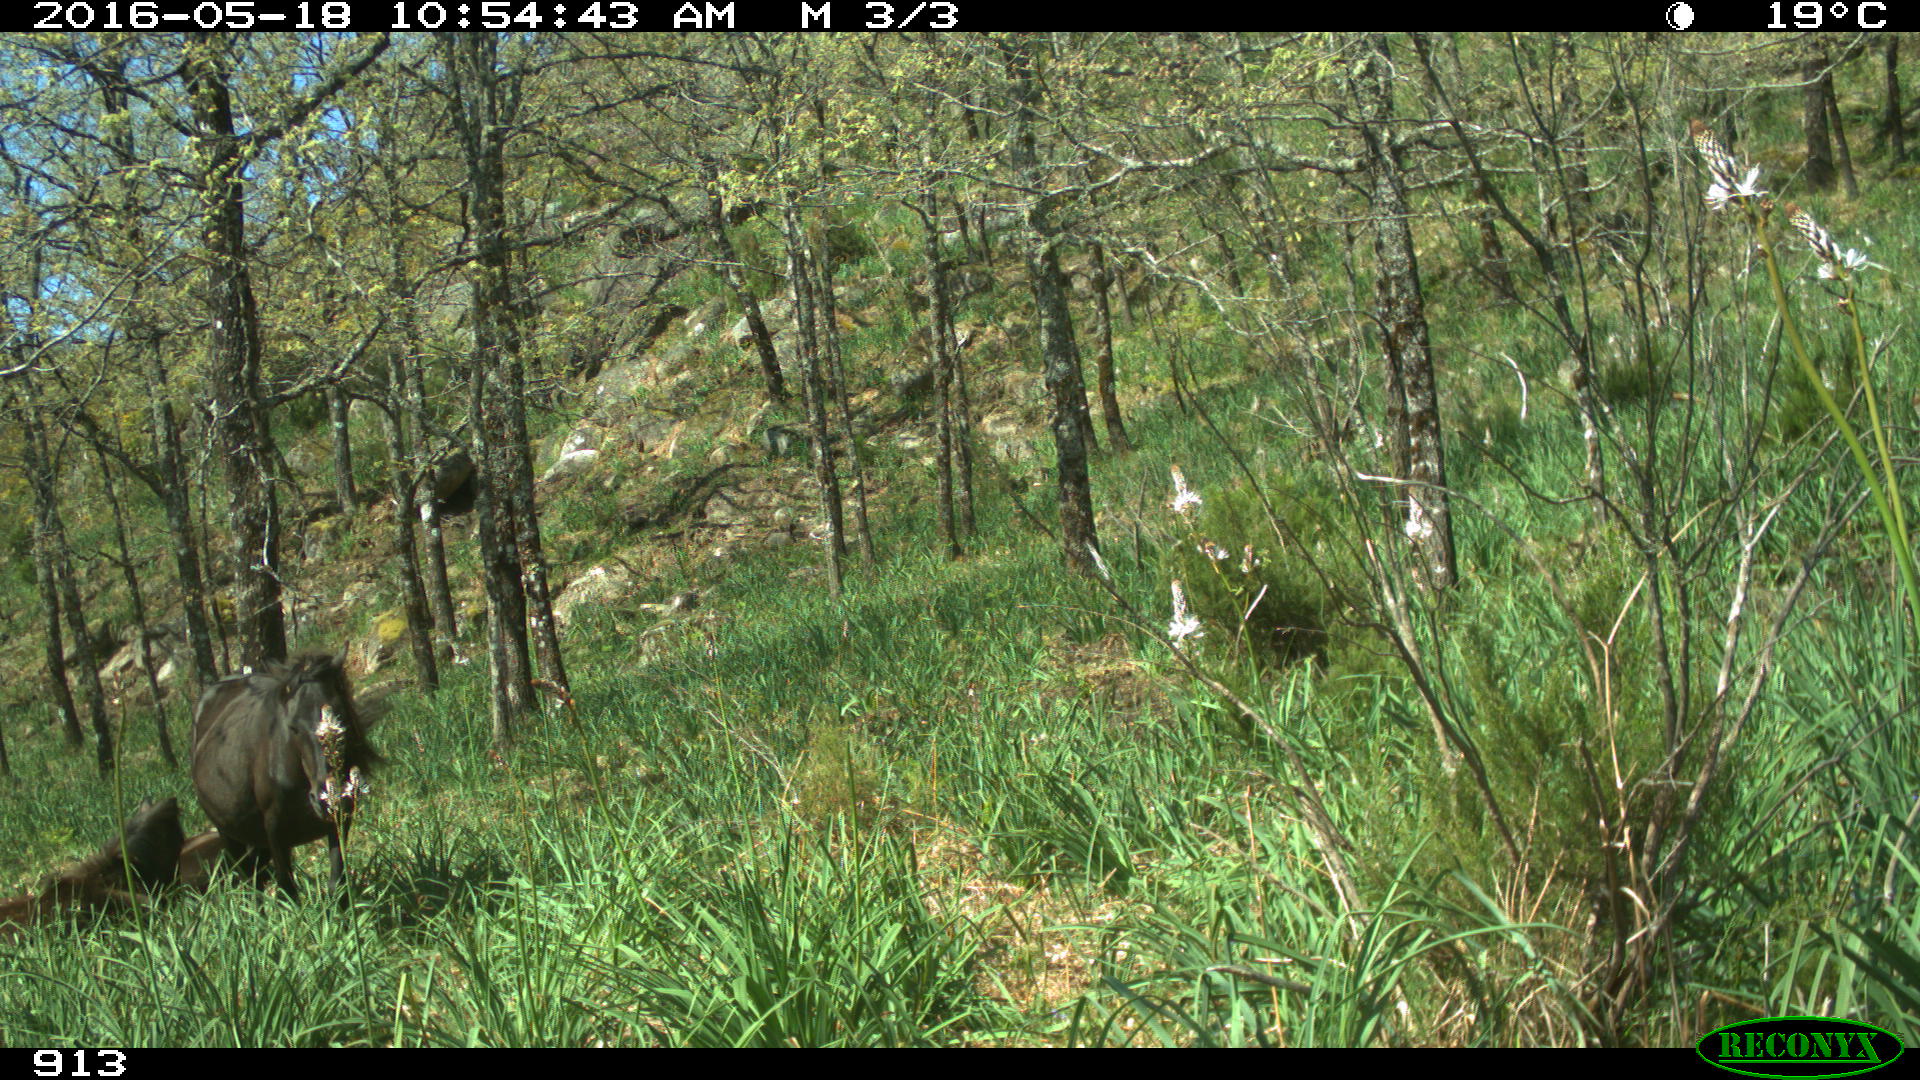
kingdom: Animalia
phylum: Chordata
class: Mammalia
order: Perissodactyla
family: Equidae
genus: Equus
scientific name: Equus caballus
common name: Horse
